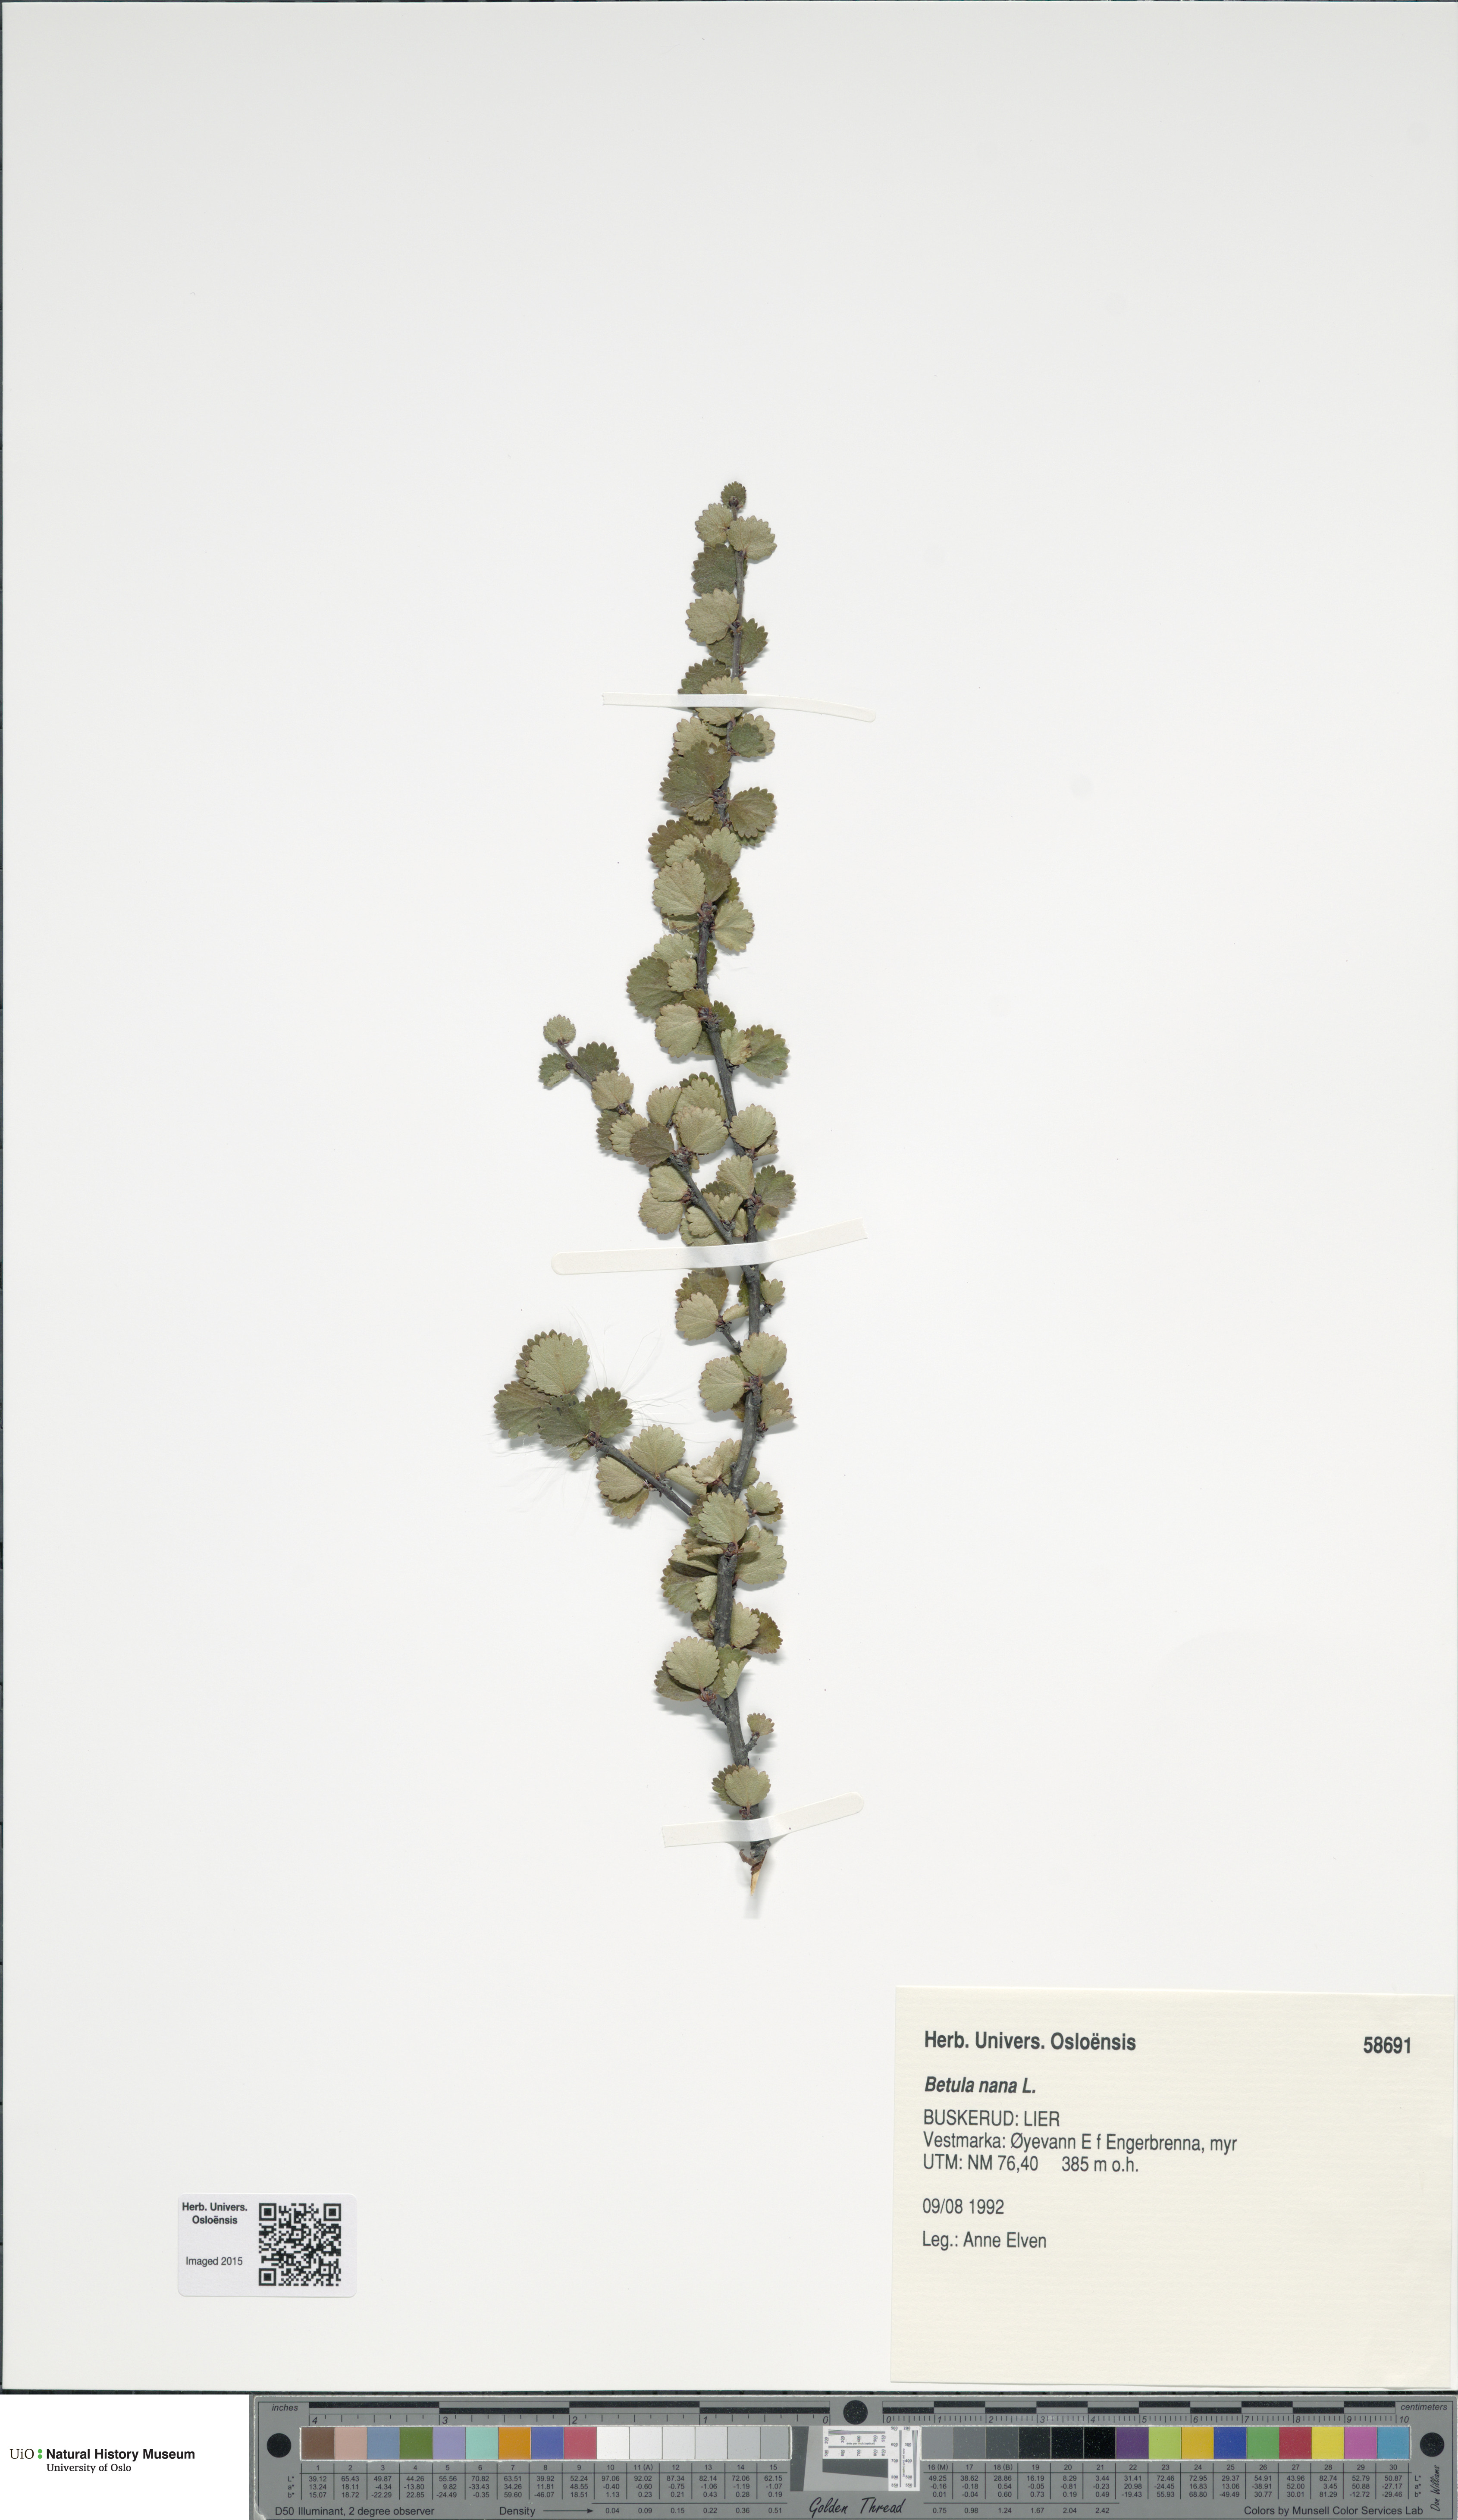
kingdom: Plantae
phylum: Tracheophyta
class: Magnoliopsida
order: Fagales
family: Betulaceae
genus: Betula
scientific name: Betula nana
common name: Arctic dwarf birch
